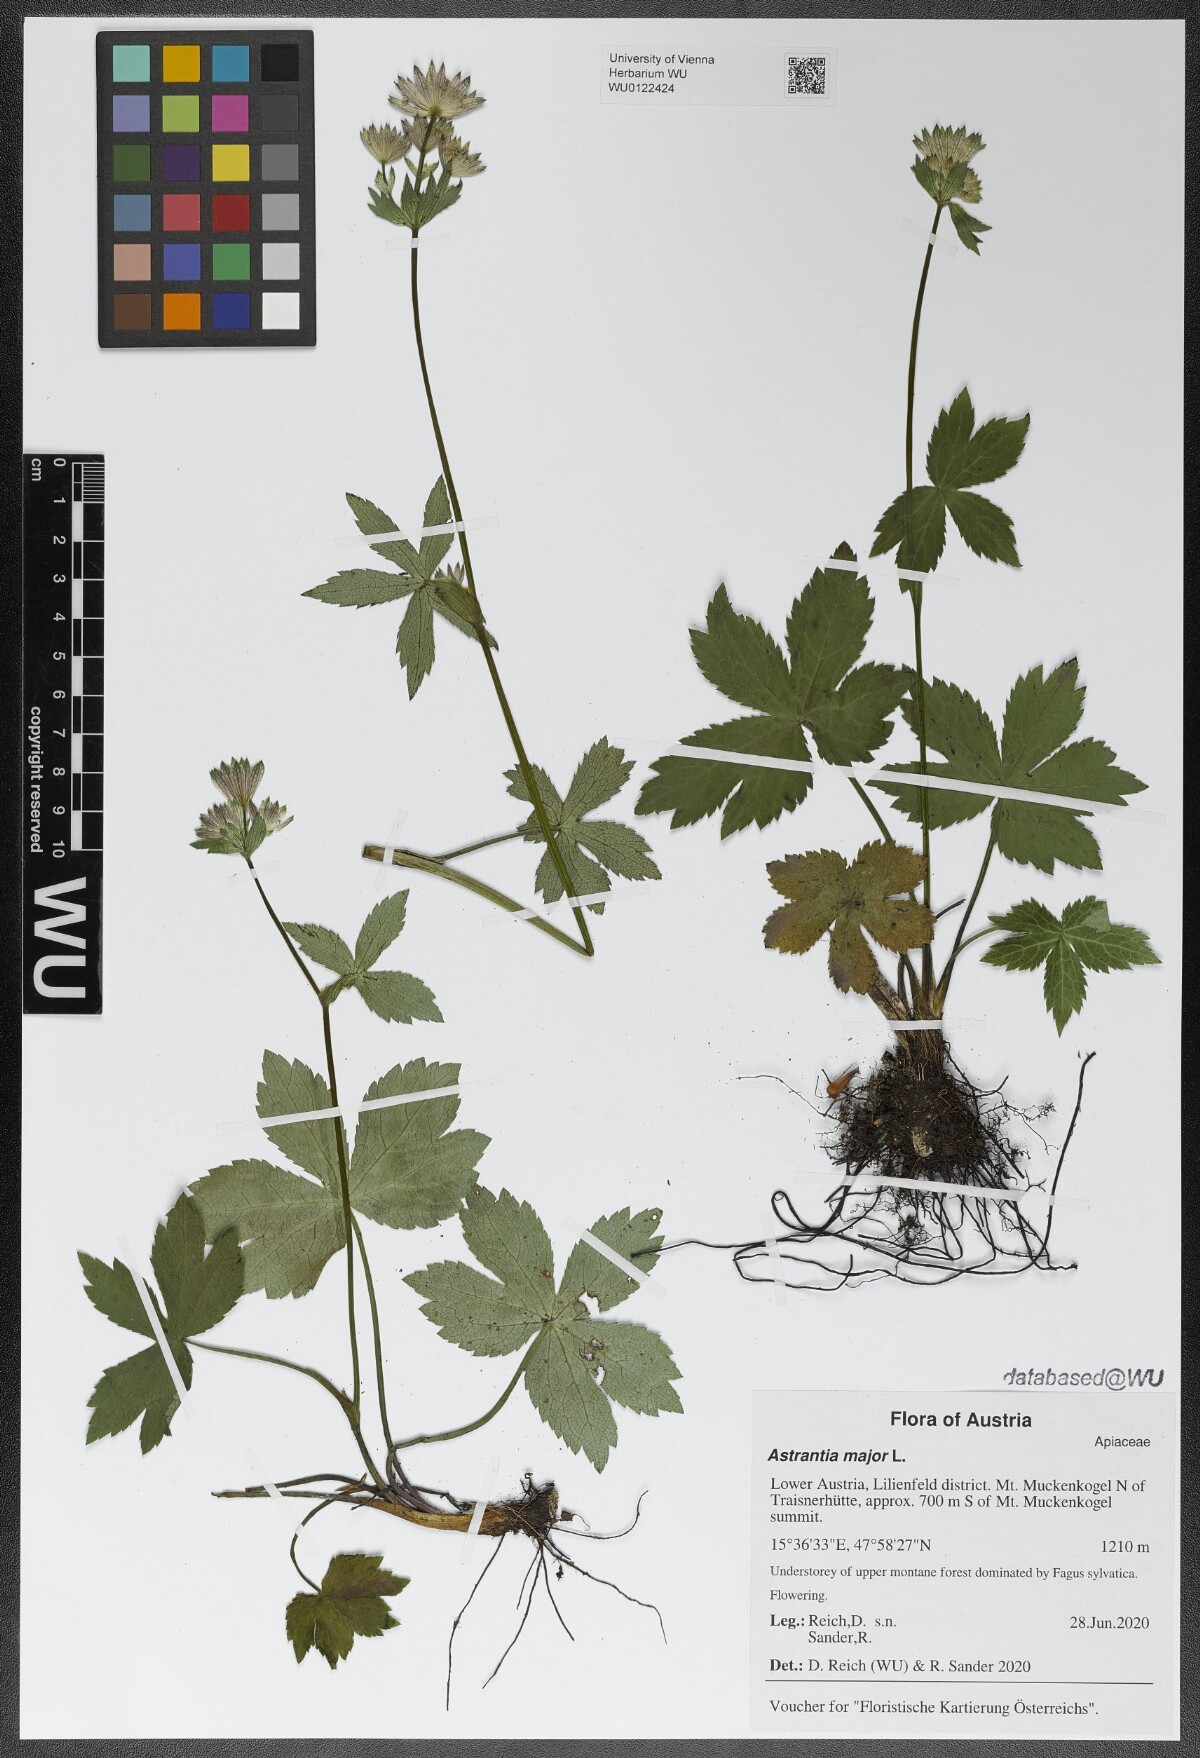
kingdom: Plantae
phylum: Tracheophyta
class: Magnoliopsida
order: Apiales
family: Apiaceae
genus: Astrantia
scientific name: Astrantia major
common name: Greater masterwort
